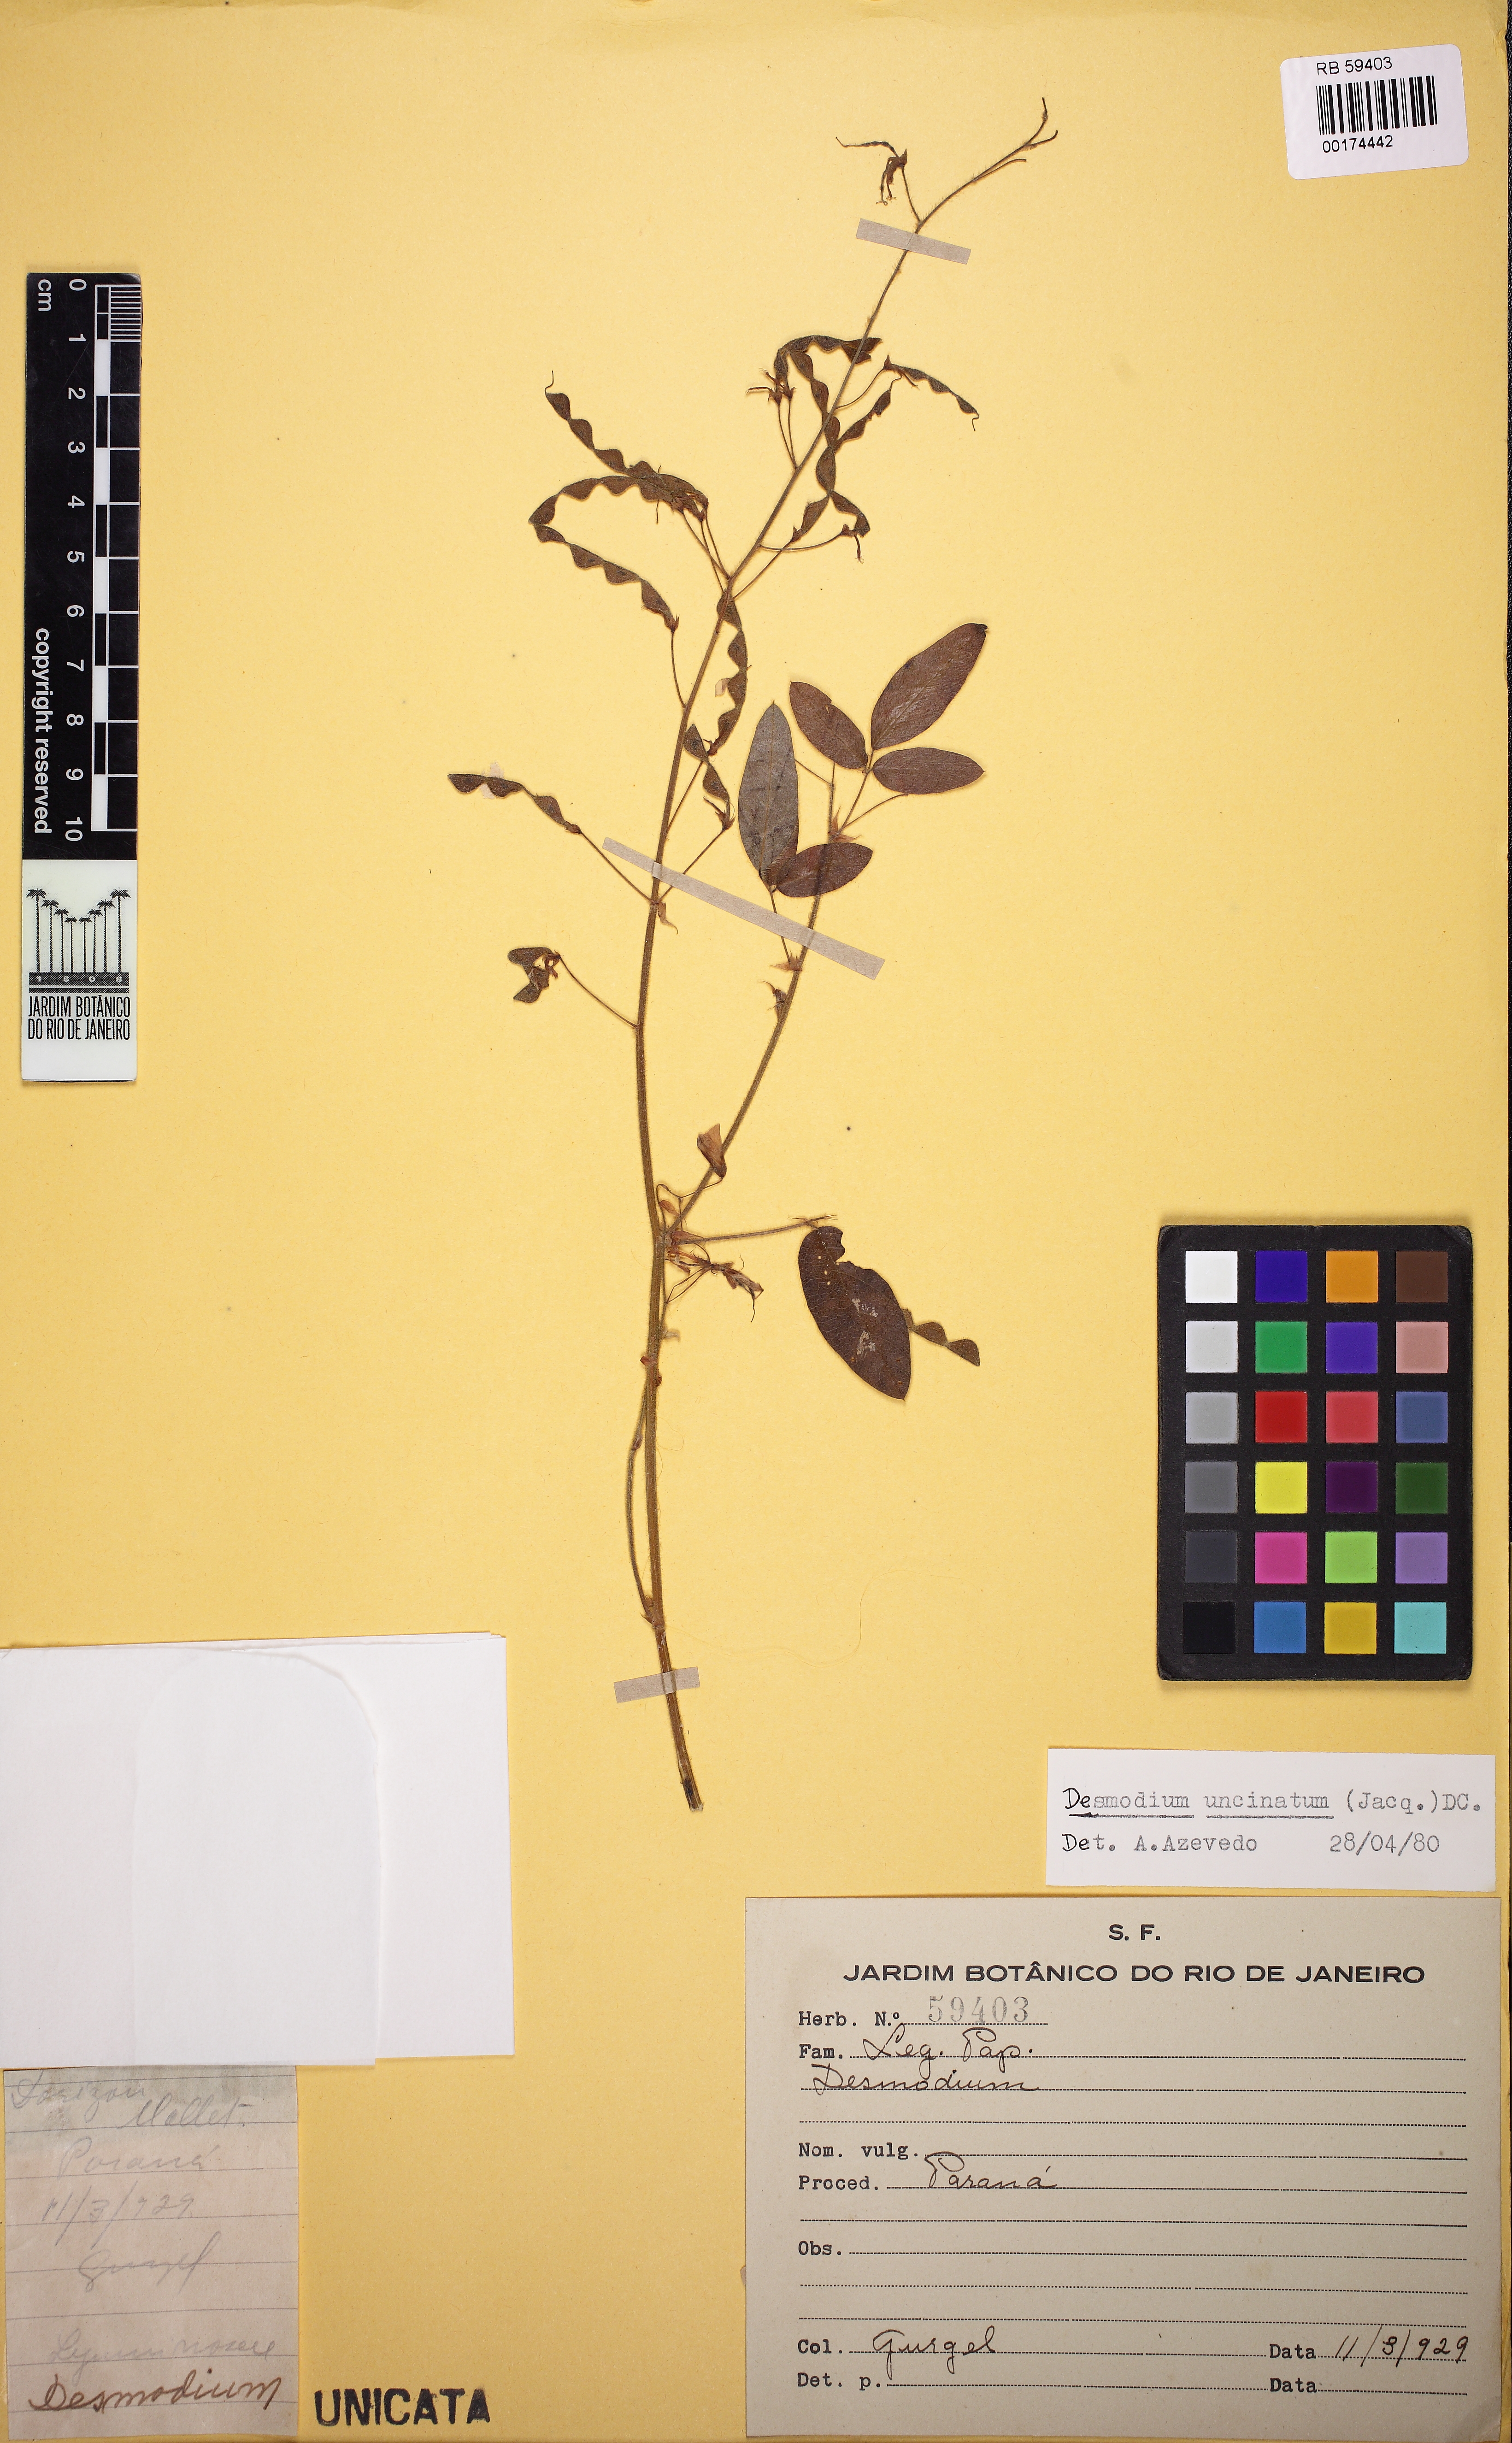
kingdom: Plantae
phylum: Tracheophyta
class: Magnoliopsida
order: Fabales
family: Fabaceae
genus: Desmodium
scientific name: Desmodium uncinatum
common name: Silverleaf desmodium
